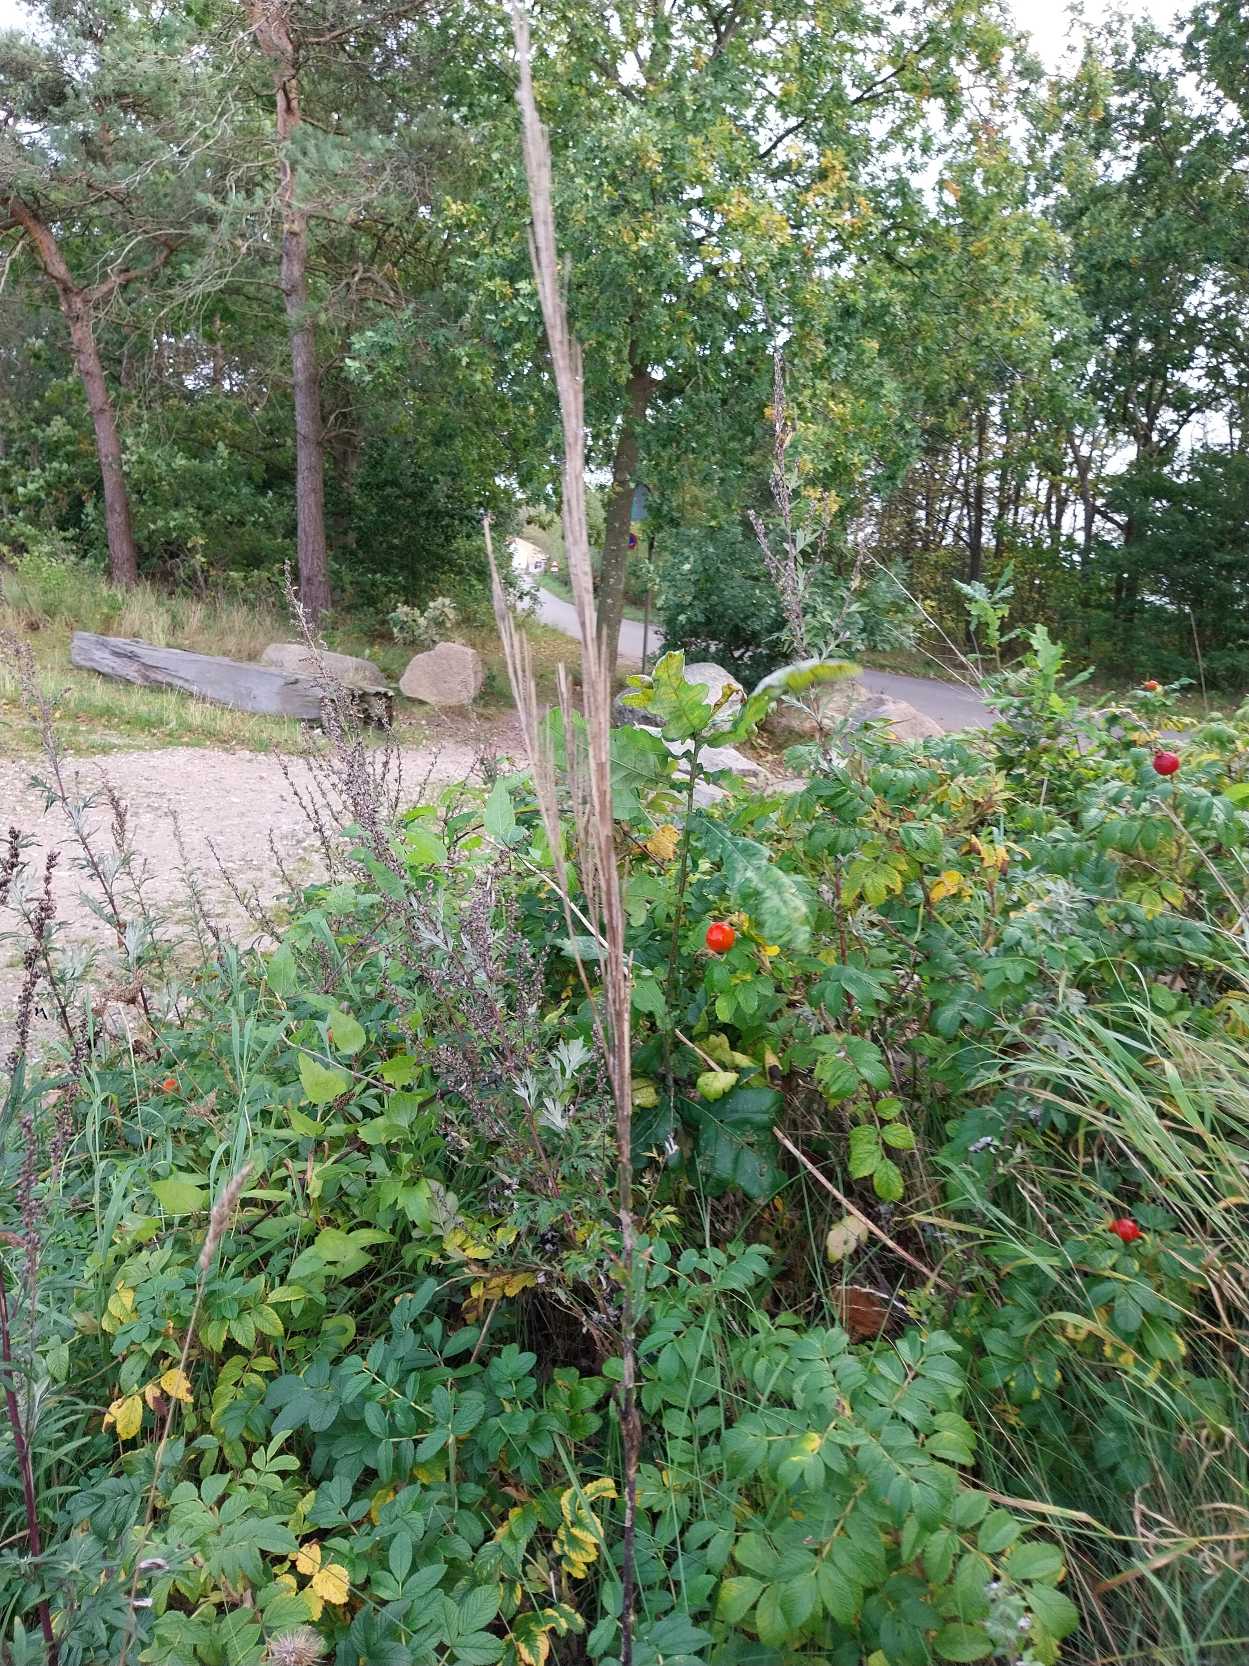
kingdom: Plantae
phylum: Tracheophyta
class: Magnoliopsida
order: Brassicales
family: Brassicaceae
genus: Turritis
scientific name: Turritis glabra
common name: Tårnurt
